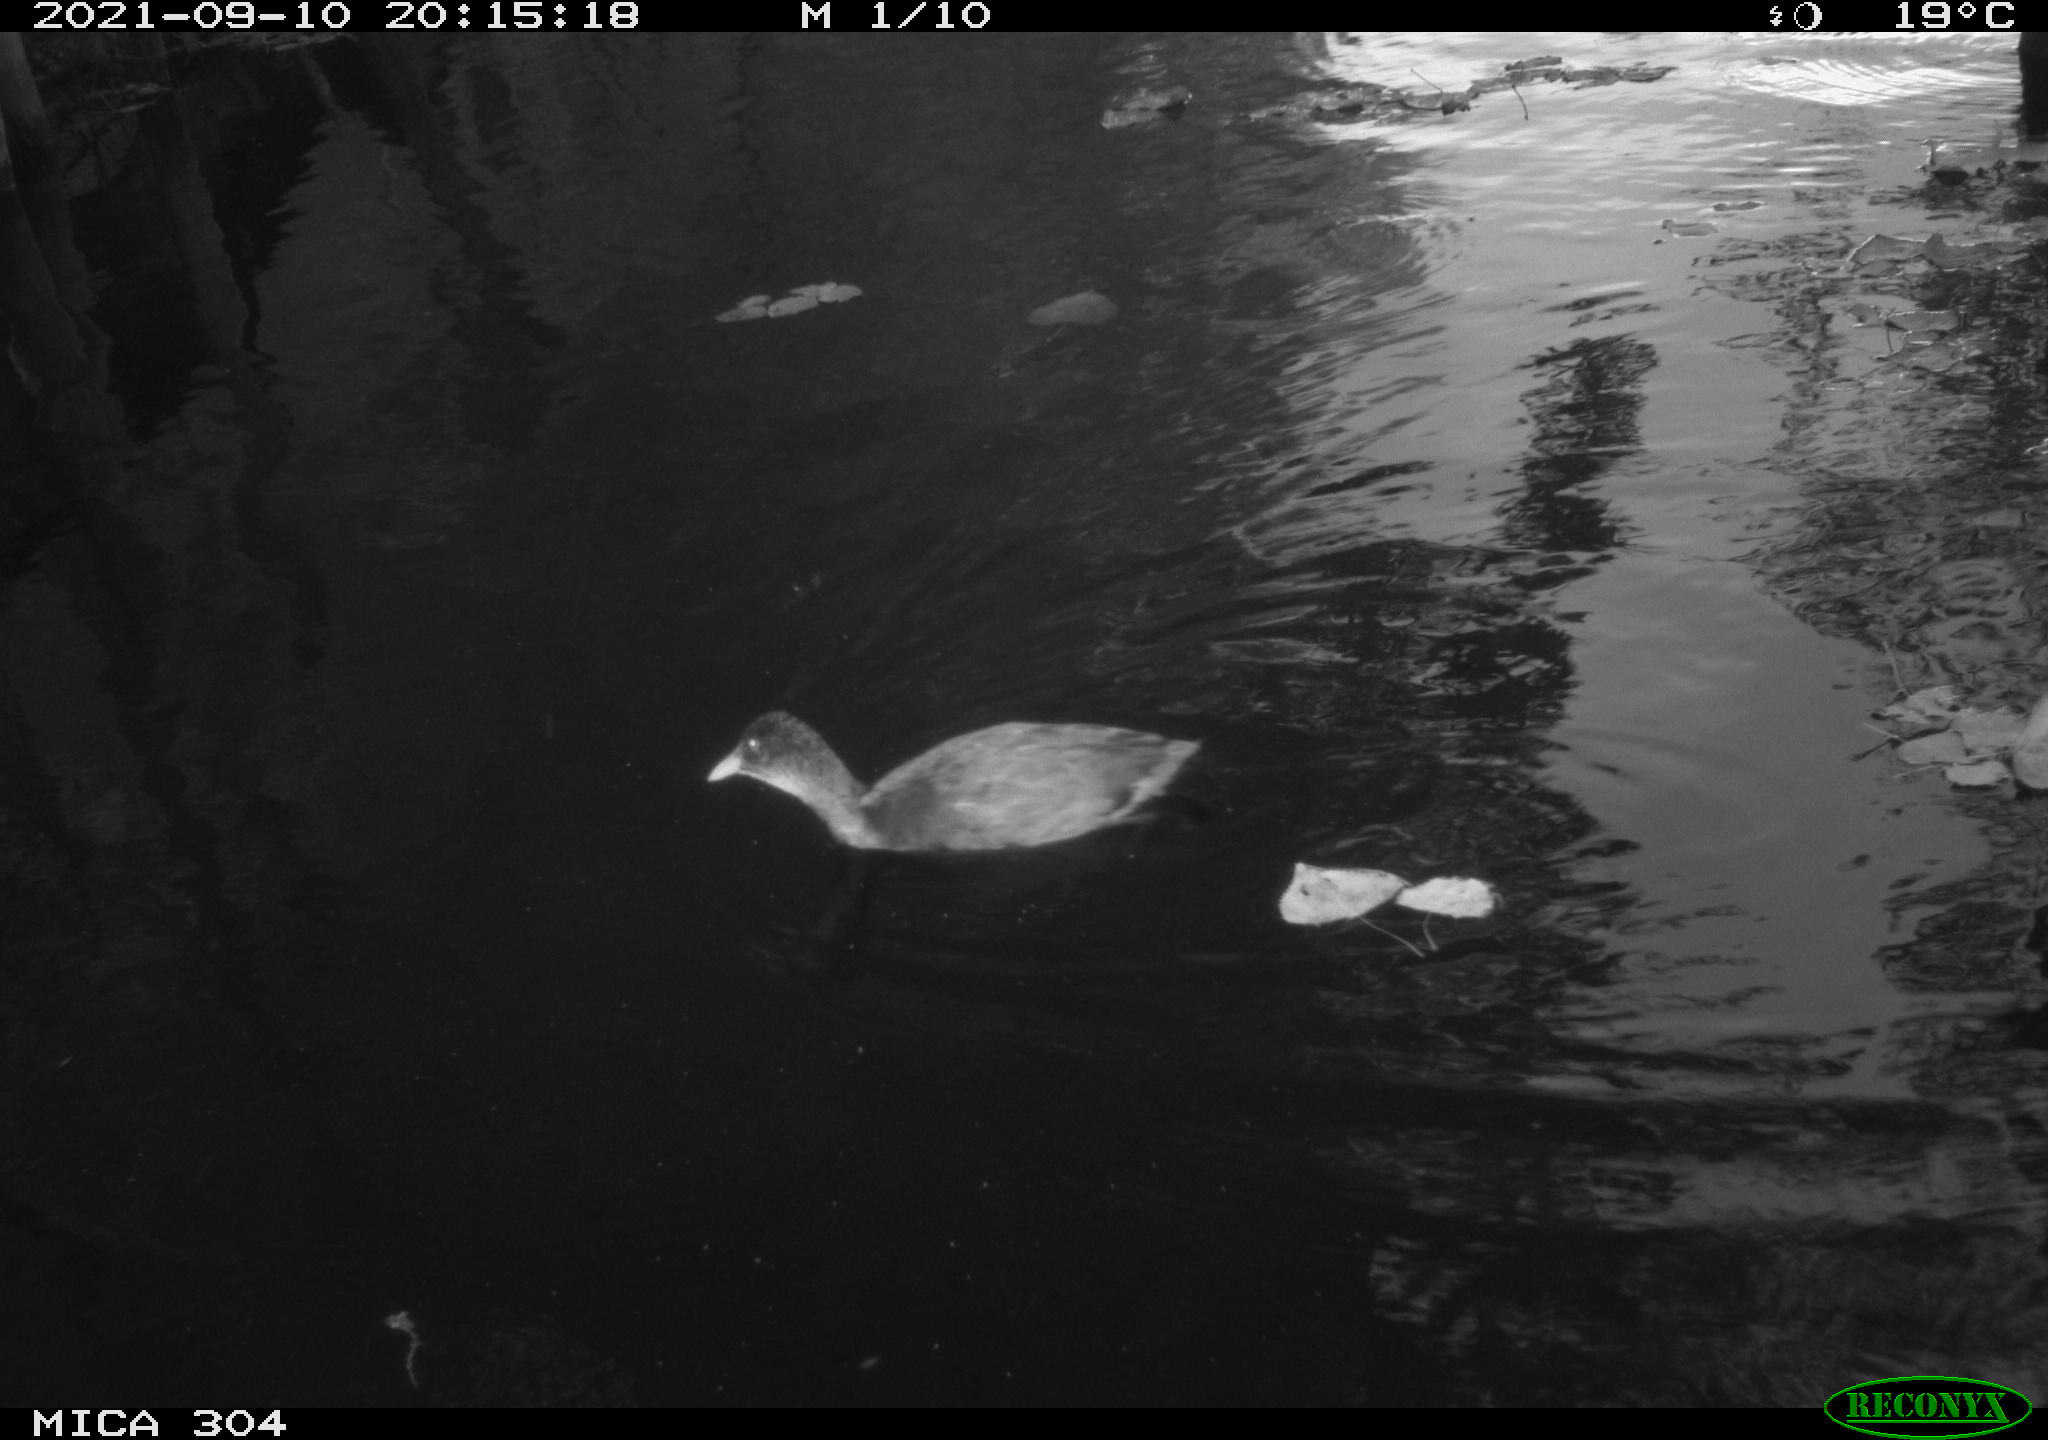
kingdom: Animalia
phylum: Chordata
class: Aves
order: Anseriformes
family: Anatidae
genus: Mareca
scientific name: Mareca strepera
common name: Gadwall
